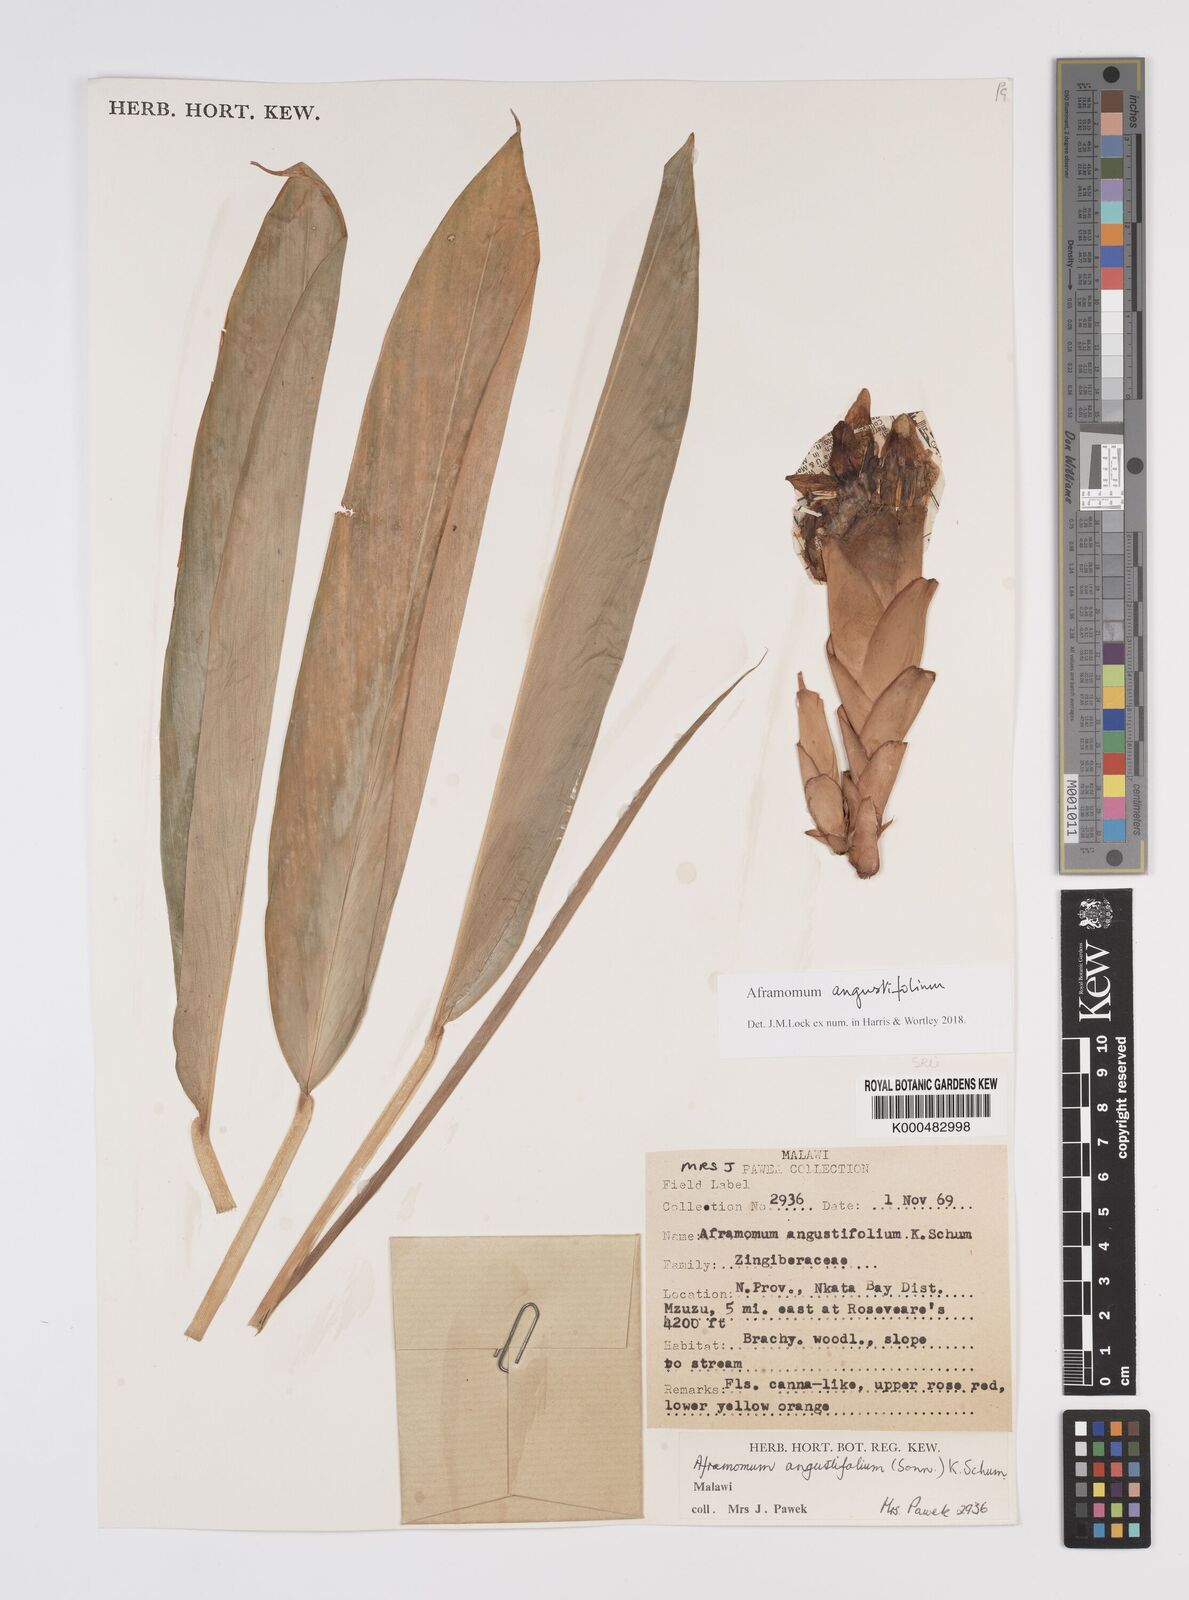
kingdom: Plantae
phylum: Tracheophyta
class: Liliopsida
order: Zingiberales
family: Zingiberaceae
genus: Aframomum
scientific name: Aframomum angustifolium
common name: Guinea grains
